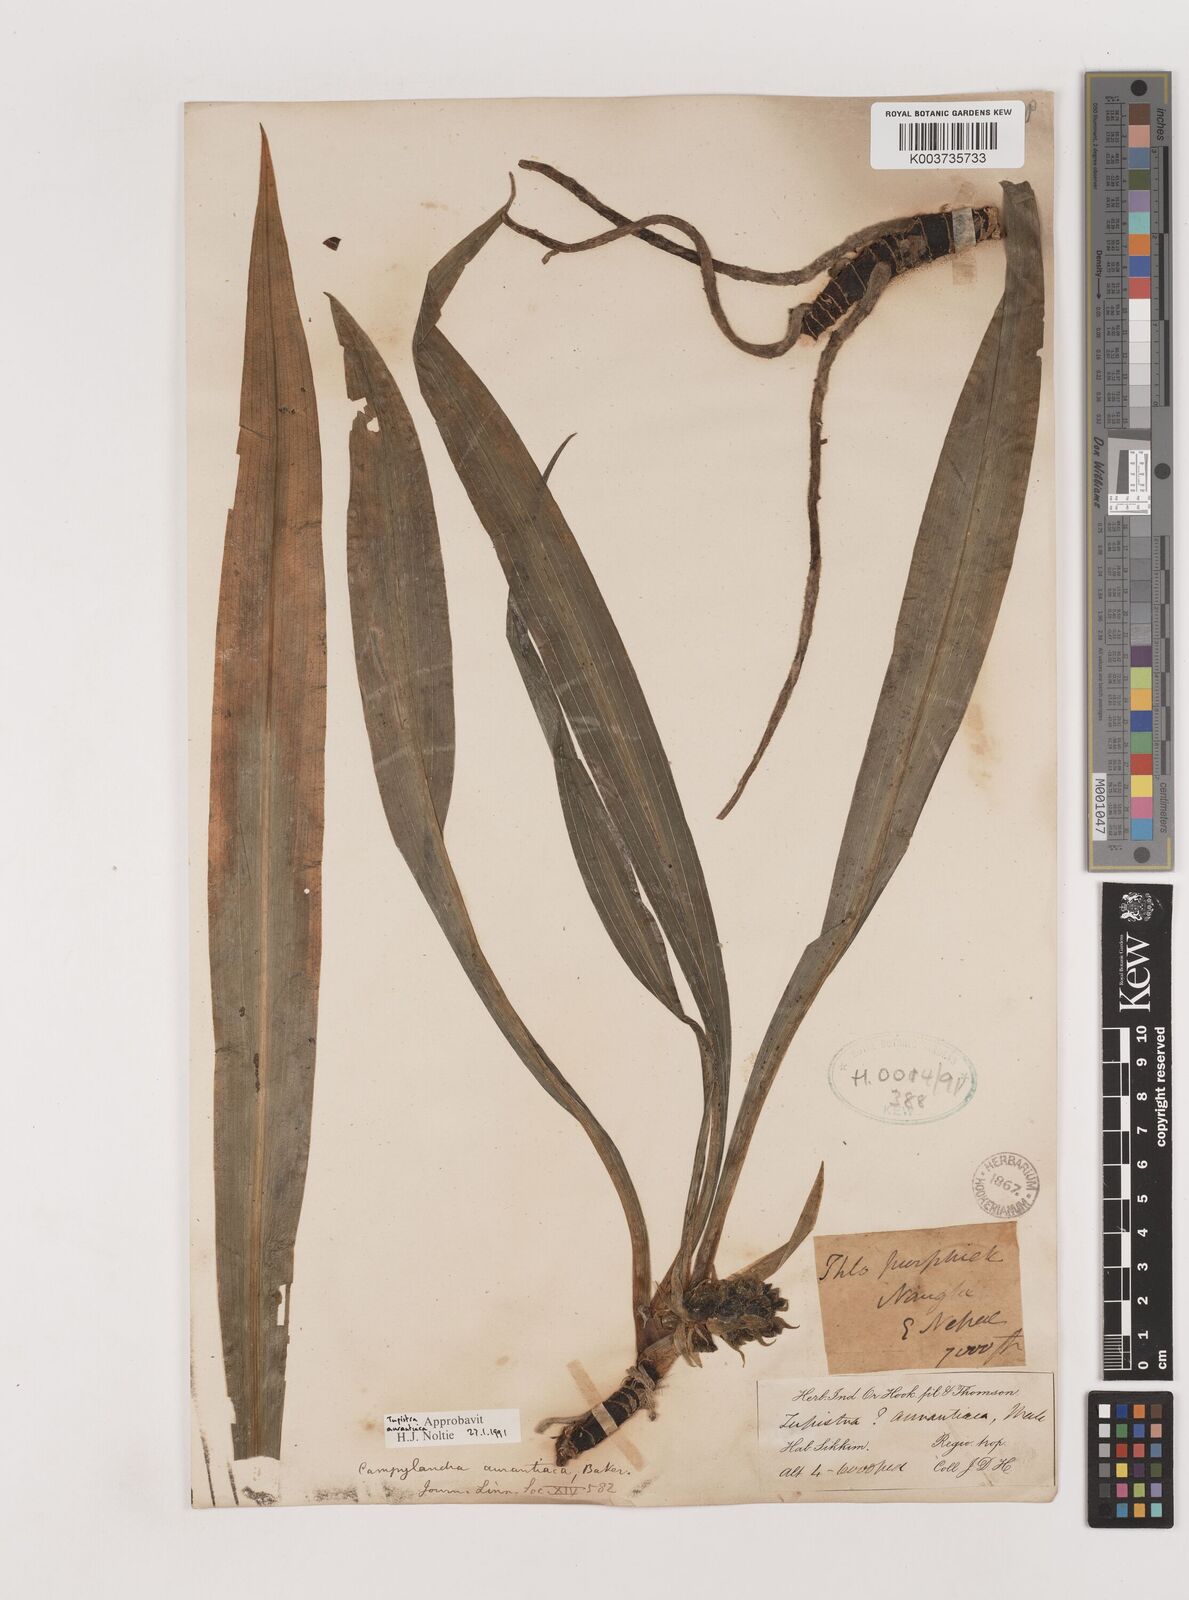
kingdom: Plantae
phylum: Tracheophyta
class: Liliopsida
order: Asparagales
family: Asparagaceae
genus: Rohdea
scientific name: Rohdea nepalensis
